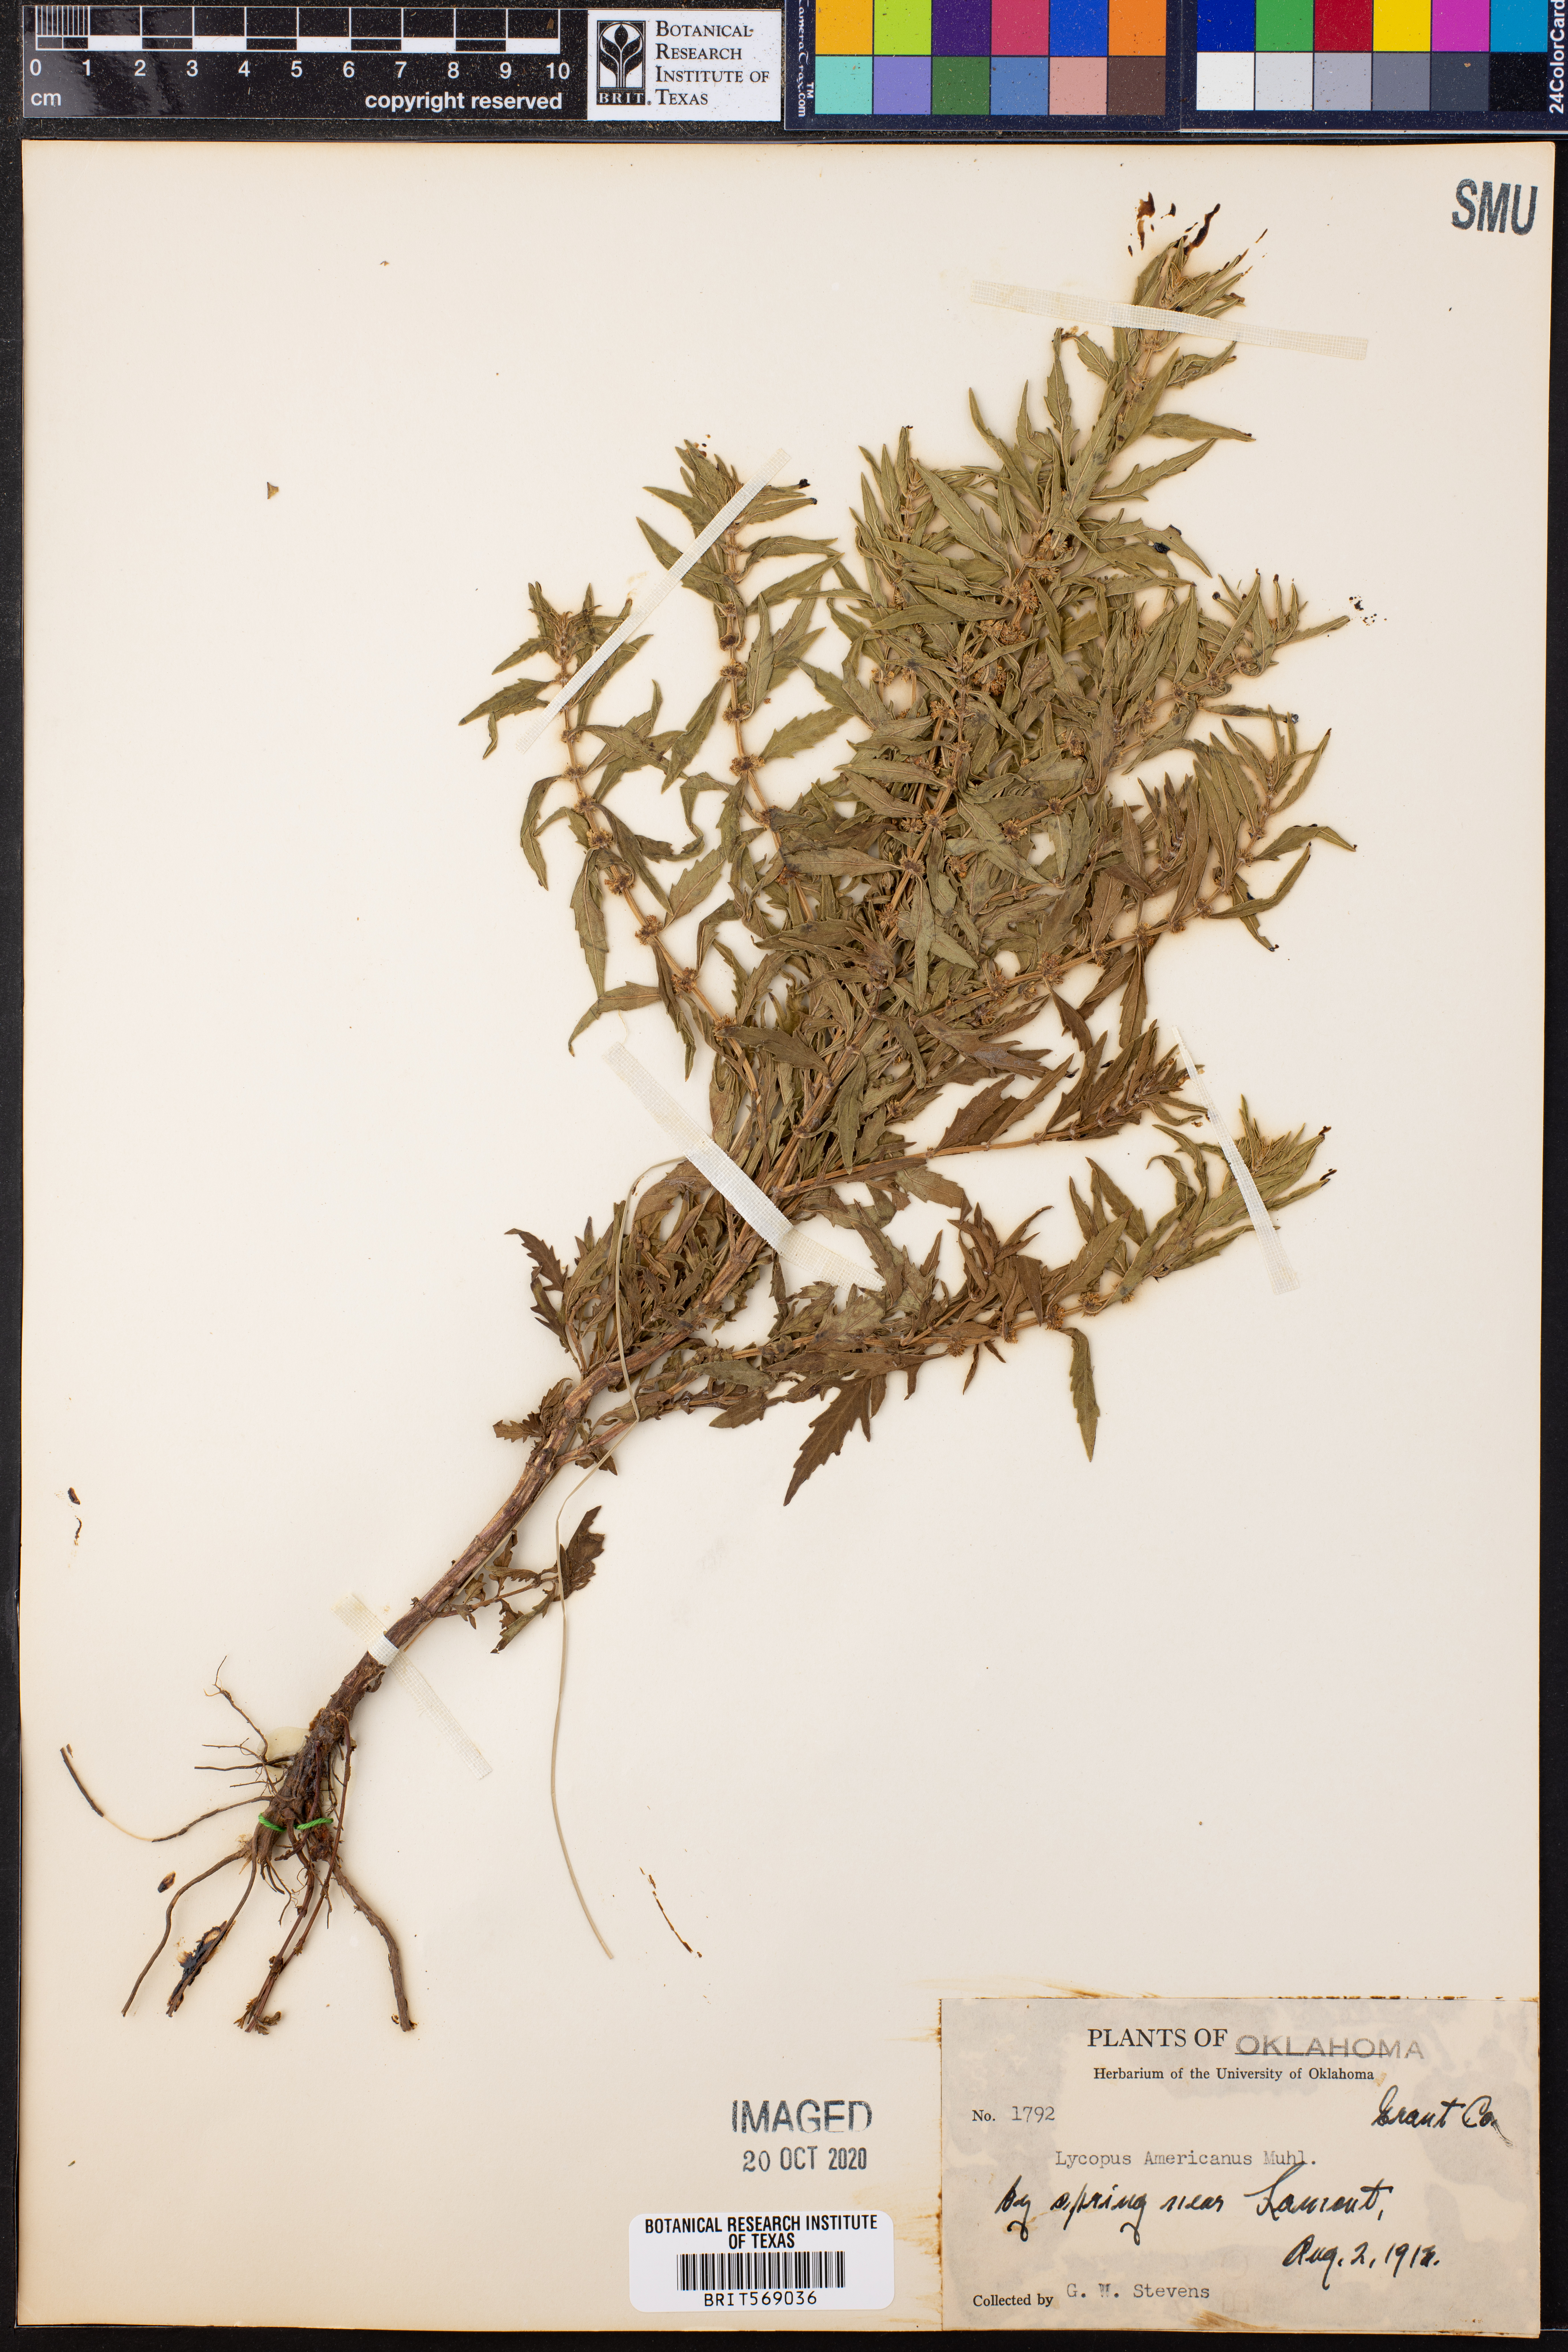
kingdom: Plantae
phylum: Tracheophyta
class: Magnoliopsida
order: Lamiales
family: Lamiaceae
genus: Lycopus
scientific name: Lycopus americanus
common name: American bugleweed
